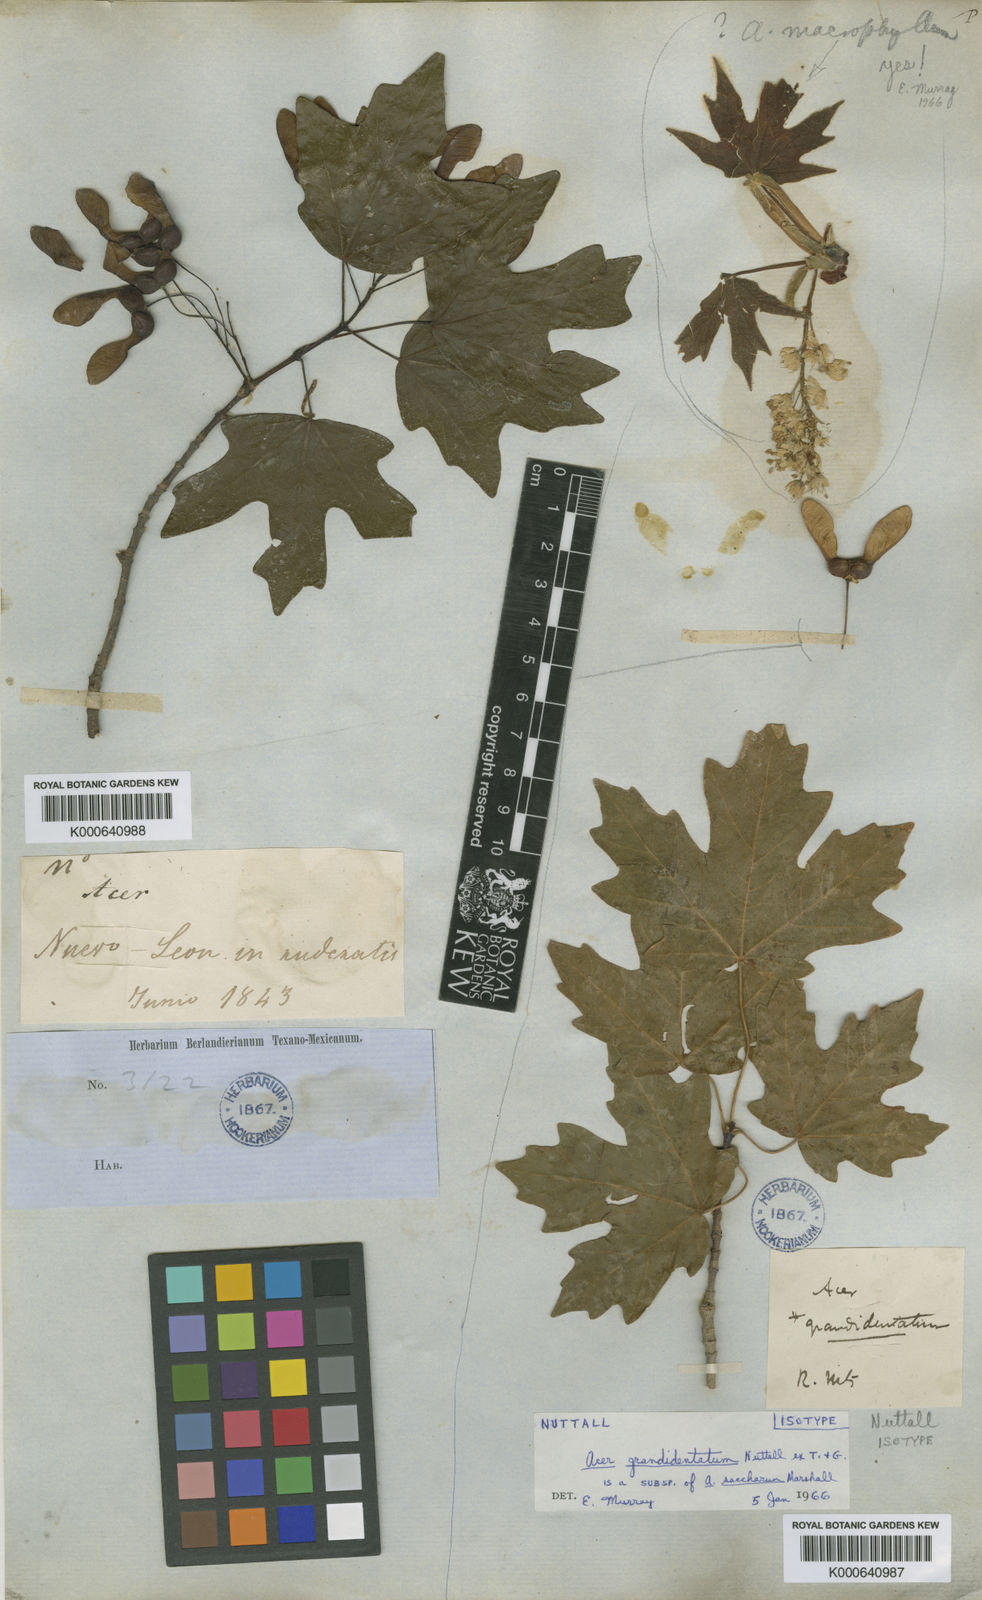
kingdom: Plantae
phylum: Tracheophyta
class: Magnoliopsida
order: Sapindales
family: Sapindaceae
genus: Acer
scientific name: Acer saccharum
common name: Sugar maple
